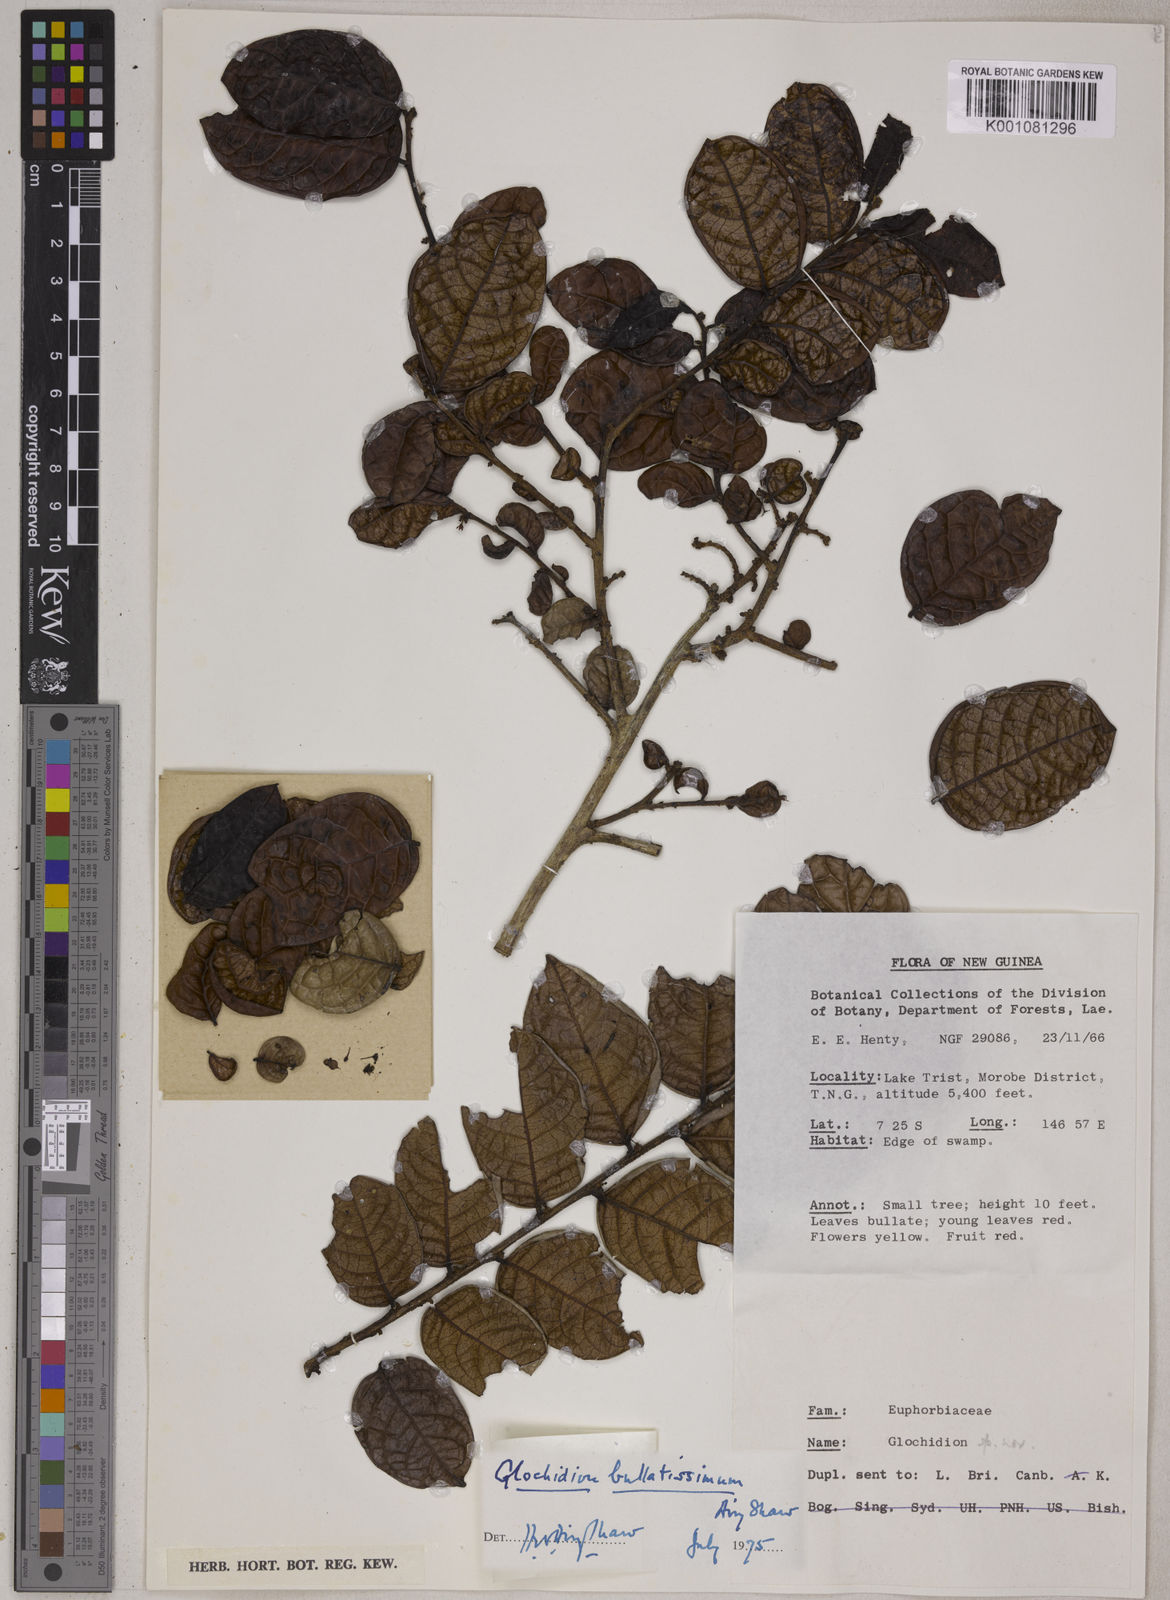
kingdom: Plantae
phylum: Tracheophyta
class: Magnoliopsida
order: Malpighiales
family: Phyllanthaceae
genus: Glochidion
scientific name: Glochidion bullatissimum
